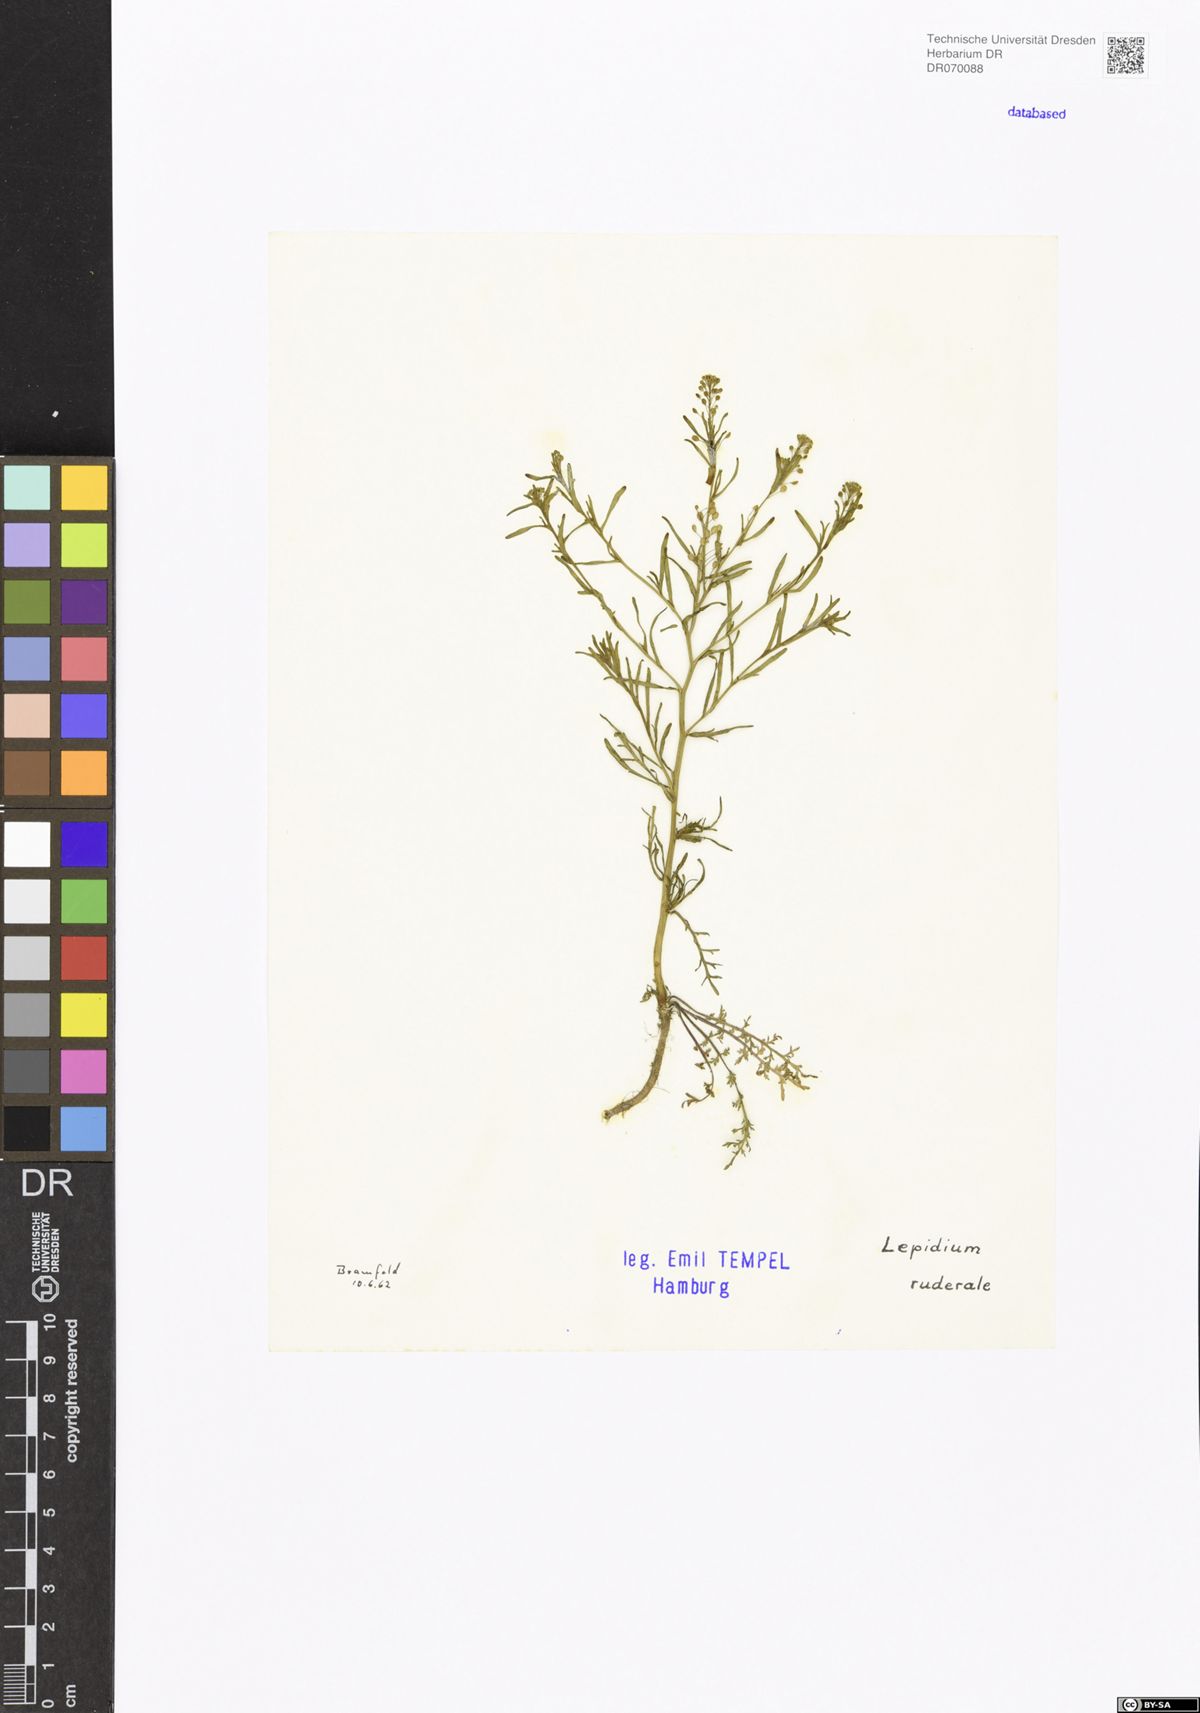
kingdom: Plantae
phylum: Tracheophyta
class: Magnoliopsida
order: Brassicales
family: Brassicaceae
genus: Lepidium
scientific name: Lepidium ruderale
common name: Narrow-leaved pepperwort
